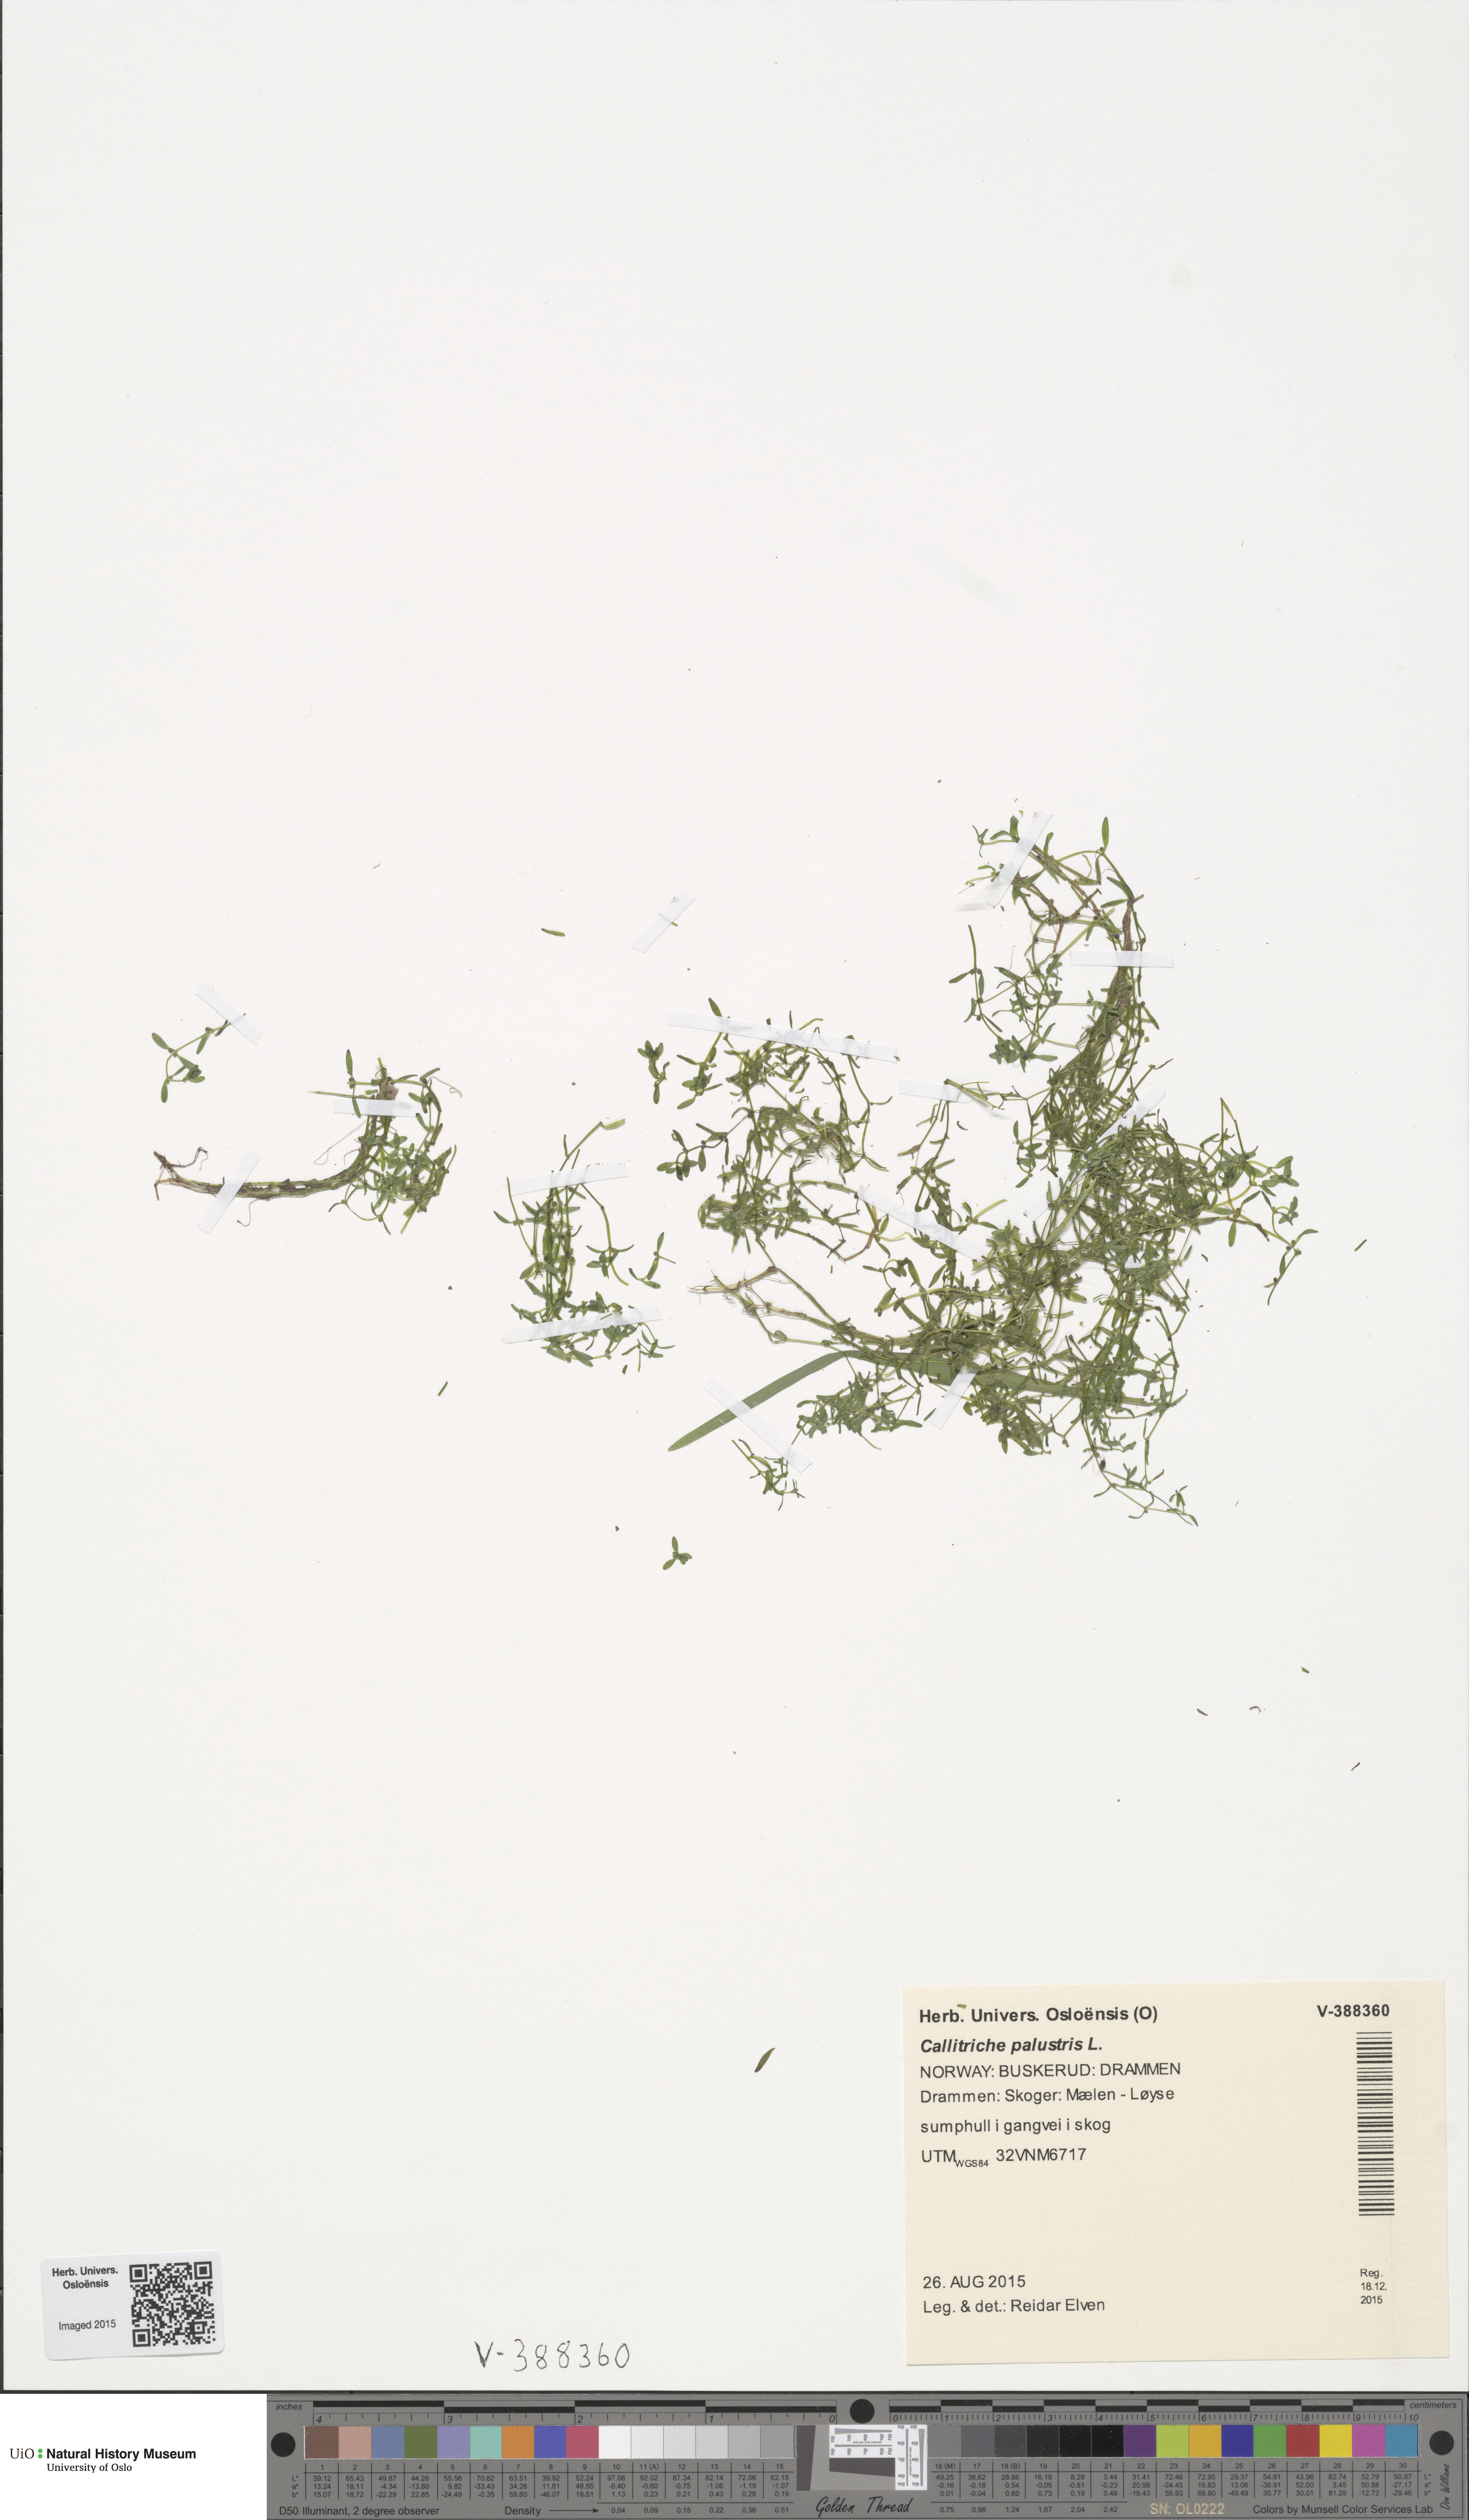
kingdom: Plantae
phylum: Tracheophyta
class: Magnoliopsida
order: Lamiales
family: Plantaginaceae
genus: Callitriche
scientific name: Callitriche palustris
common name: Spring water-starwort
